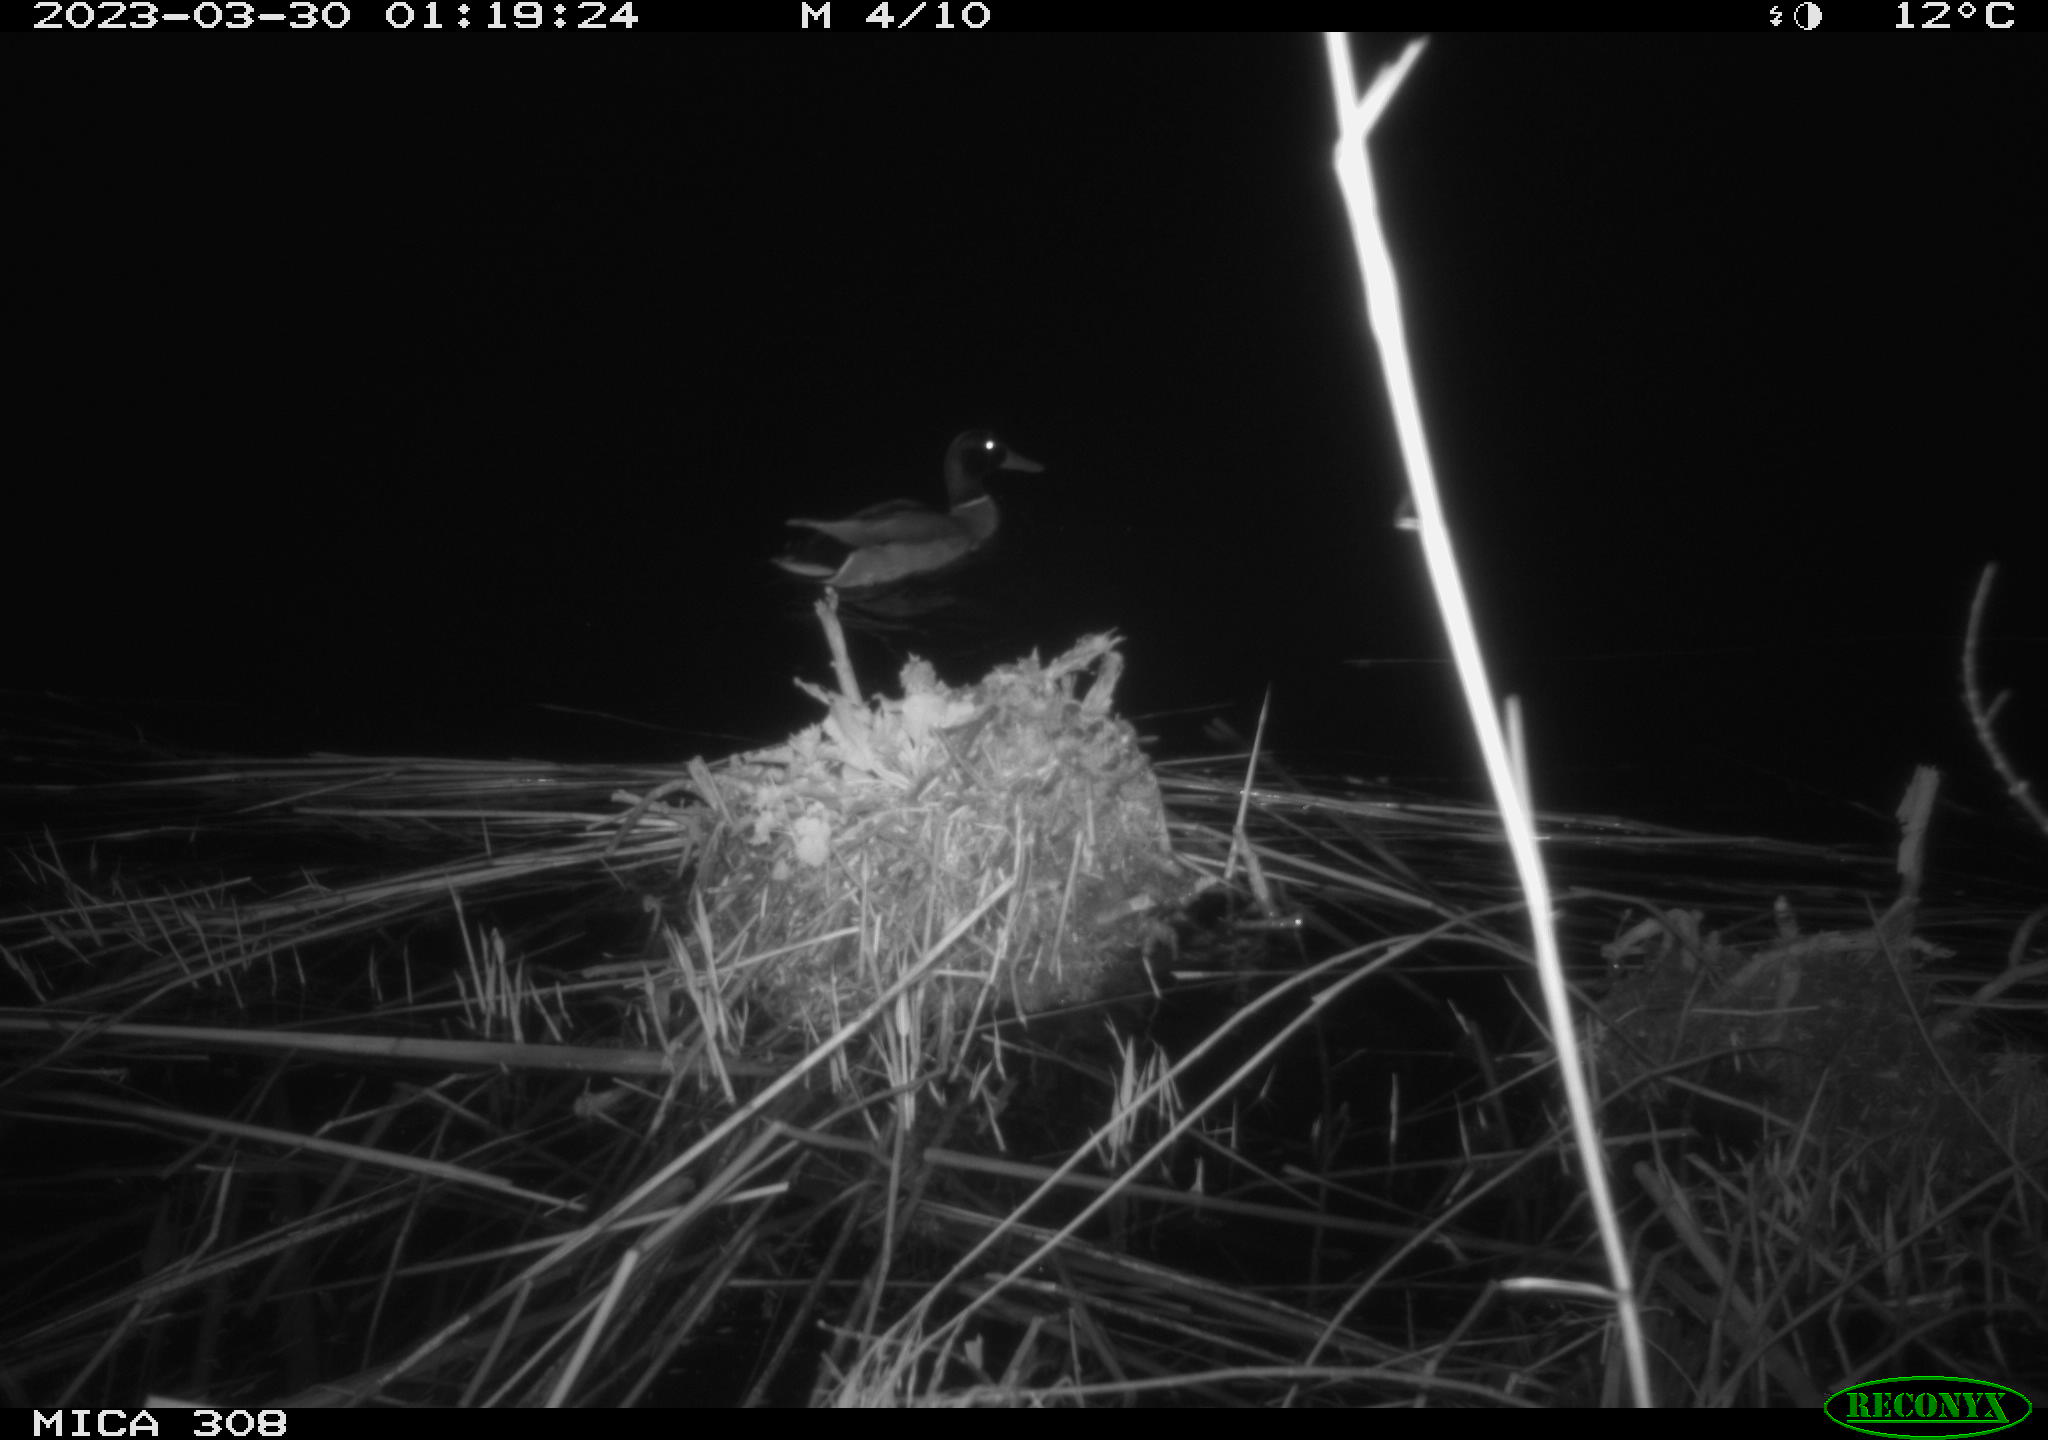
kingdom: Animalia
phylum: Chordata
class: Aves
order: Anseriformes
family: Anatidae
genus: Anas
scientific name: Anas
